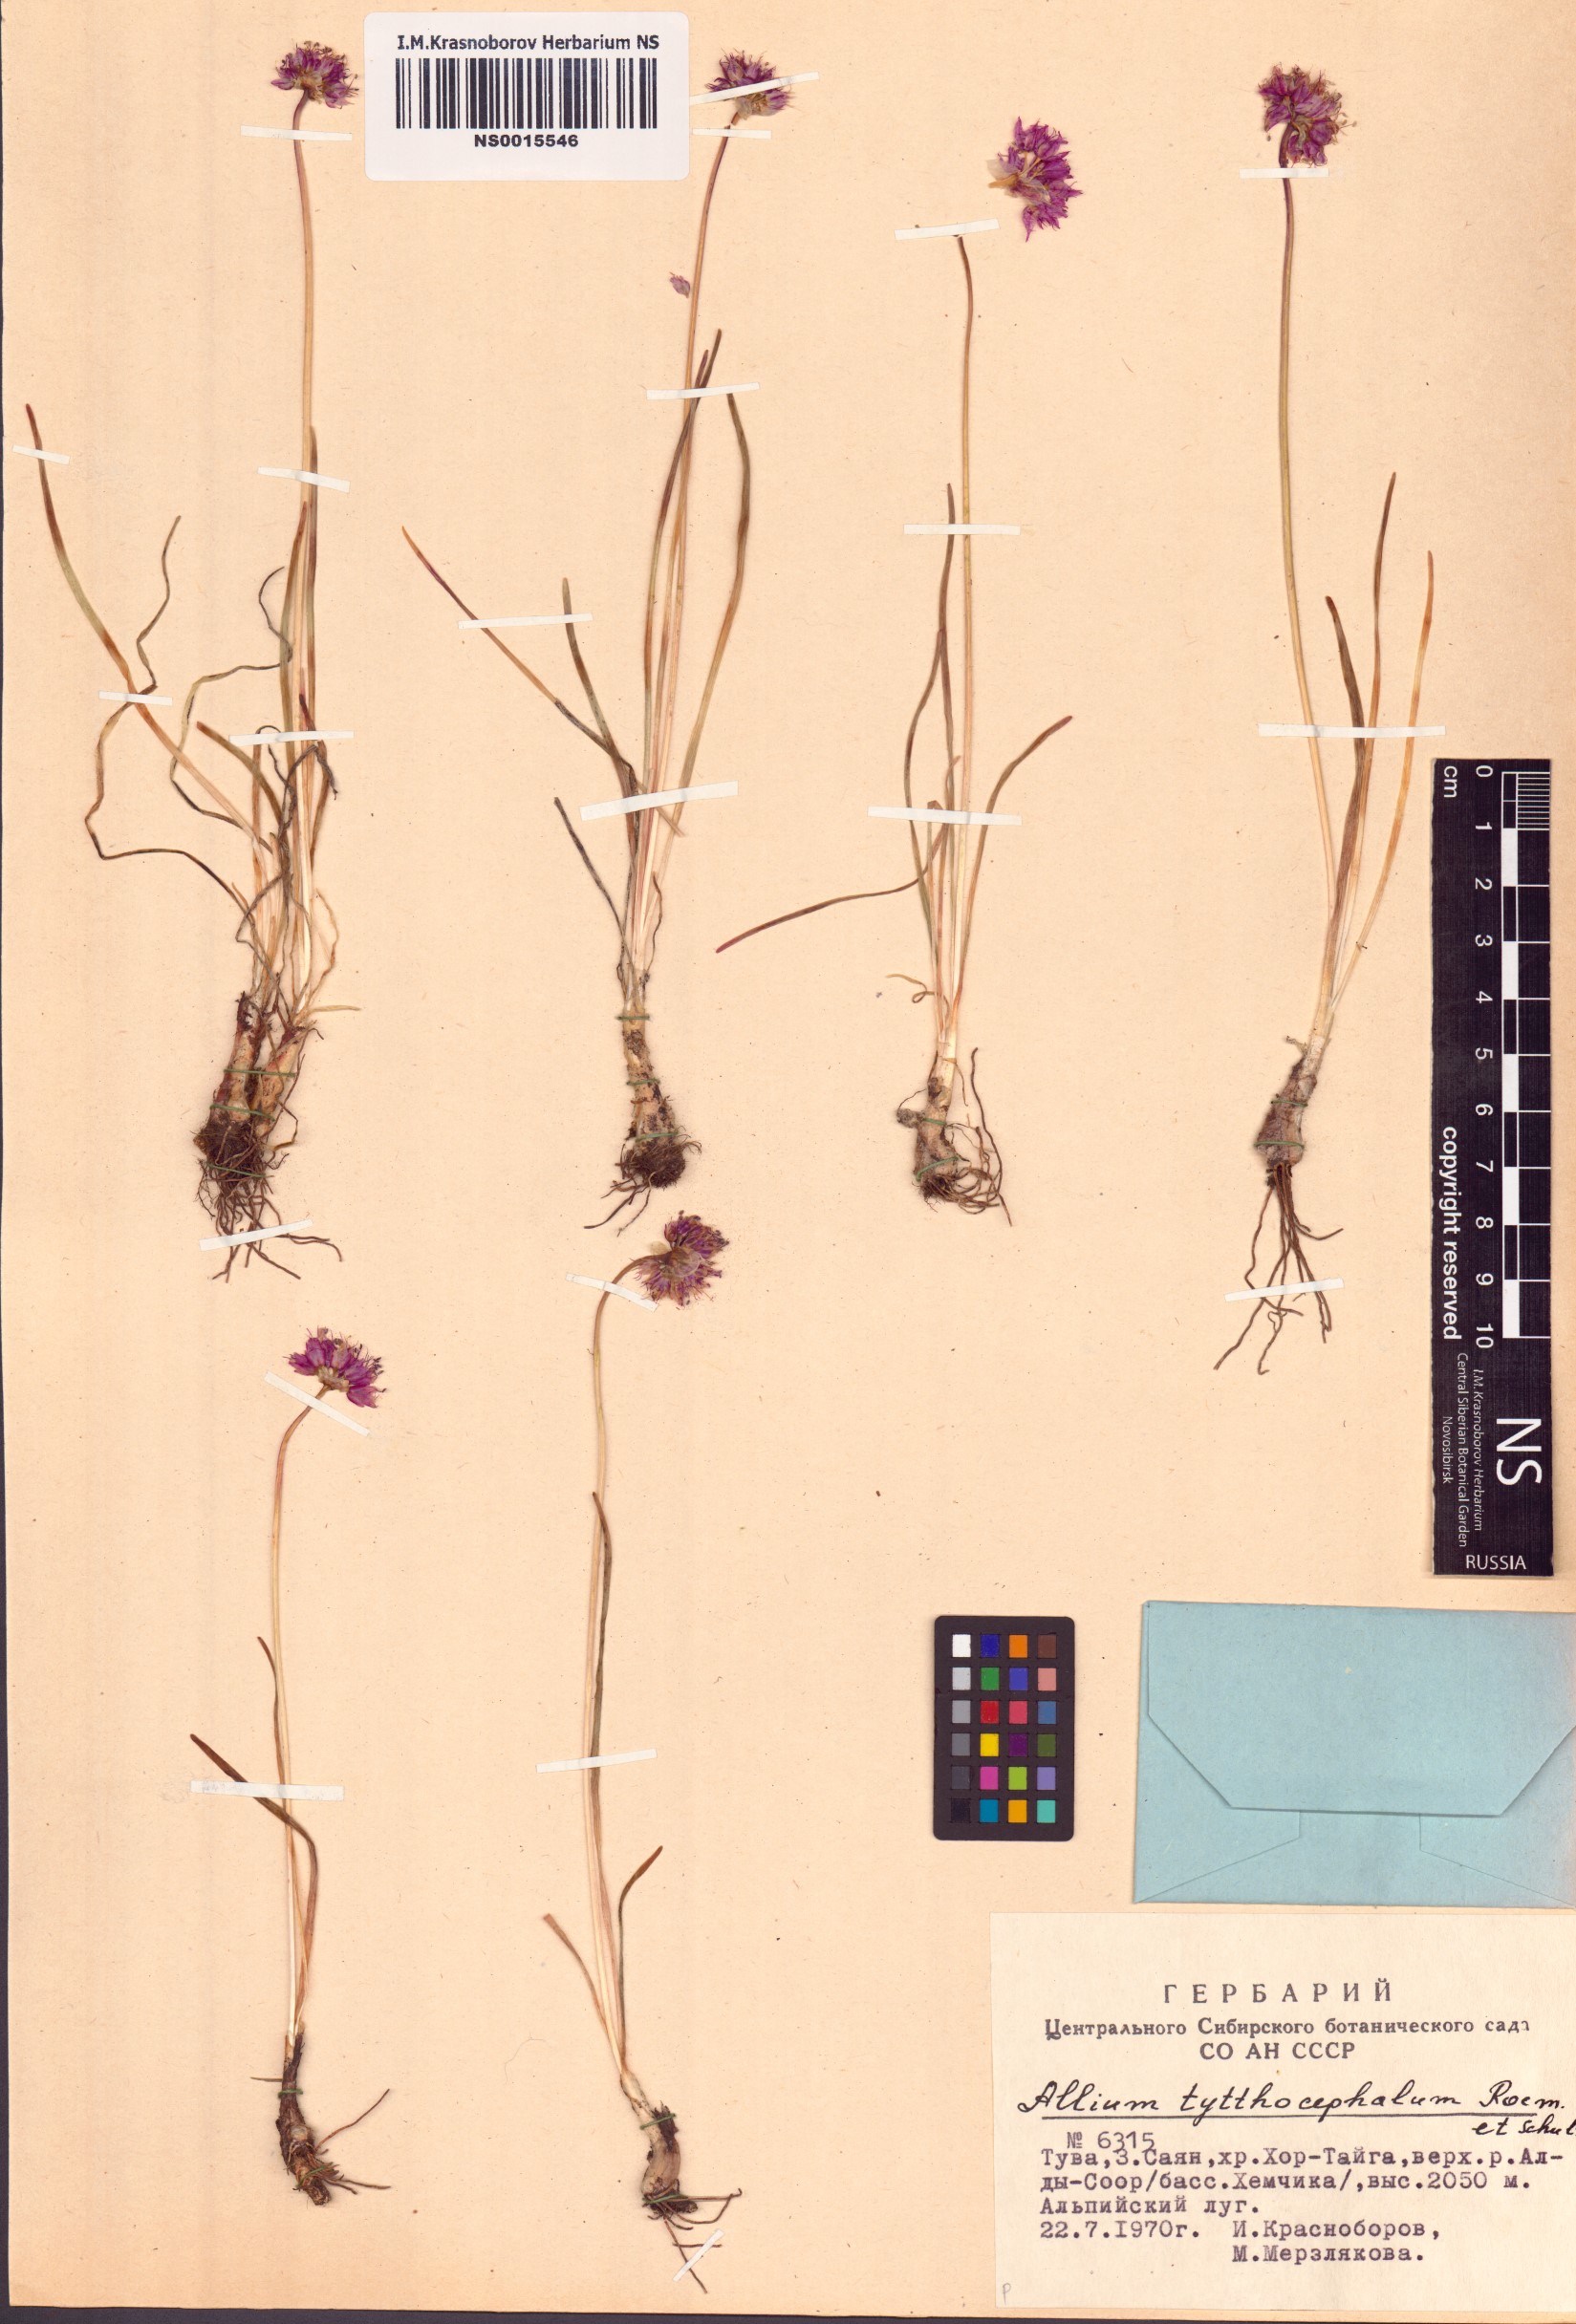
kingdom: Plantae
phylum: Tracheophyta
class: Liliopsida
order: Asparagales
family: Amaryllidaceae
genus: Allium
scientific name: Allium tytthocephalum
